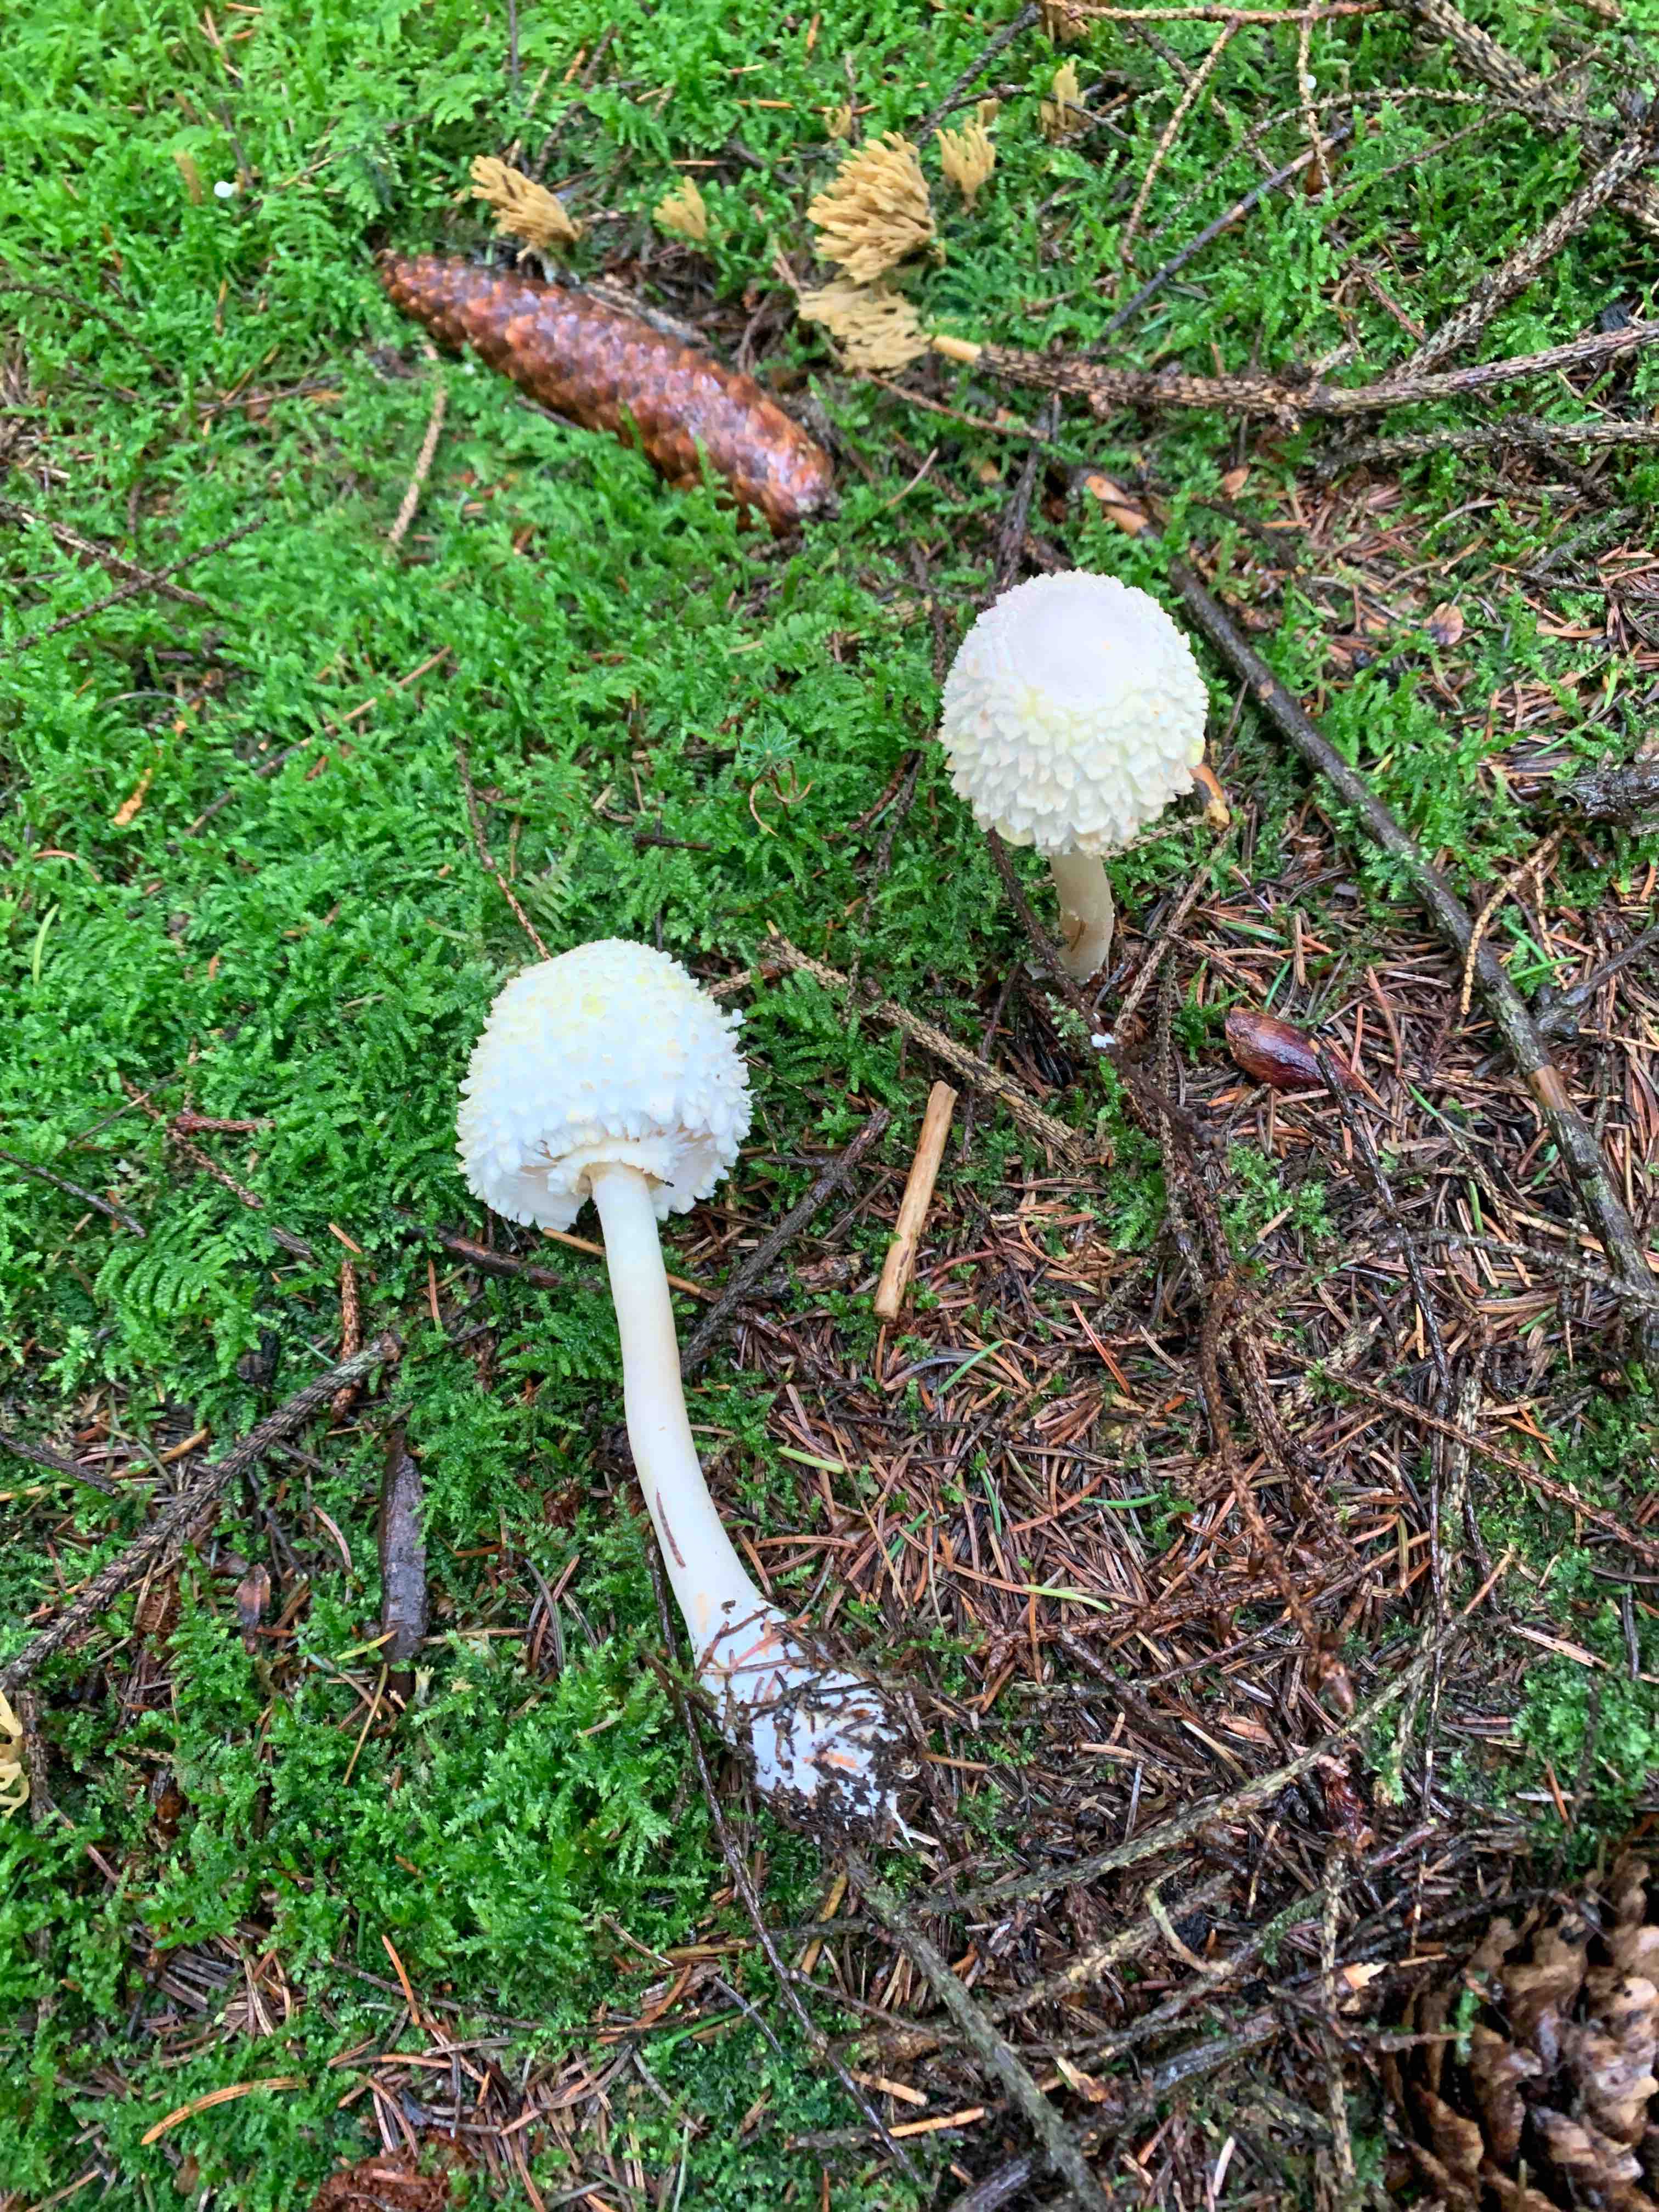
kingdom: Fungi
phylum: Basidiomycota
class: Agaricomycetes
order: Agaricales
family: Agaricaceae
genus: Leucoagaricus
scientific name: Leucoagaricus nympharum
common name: gran-silkehat
